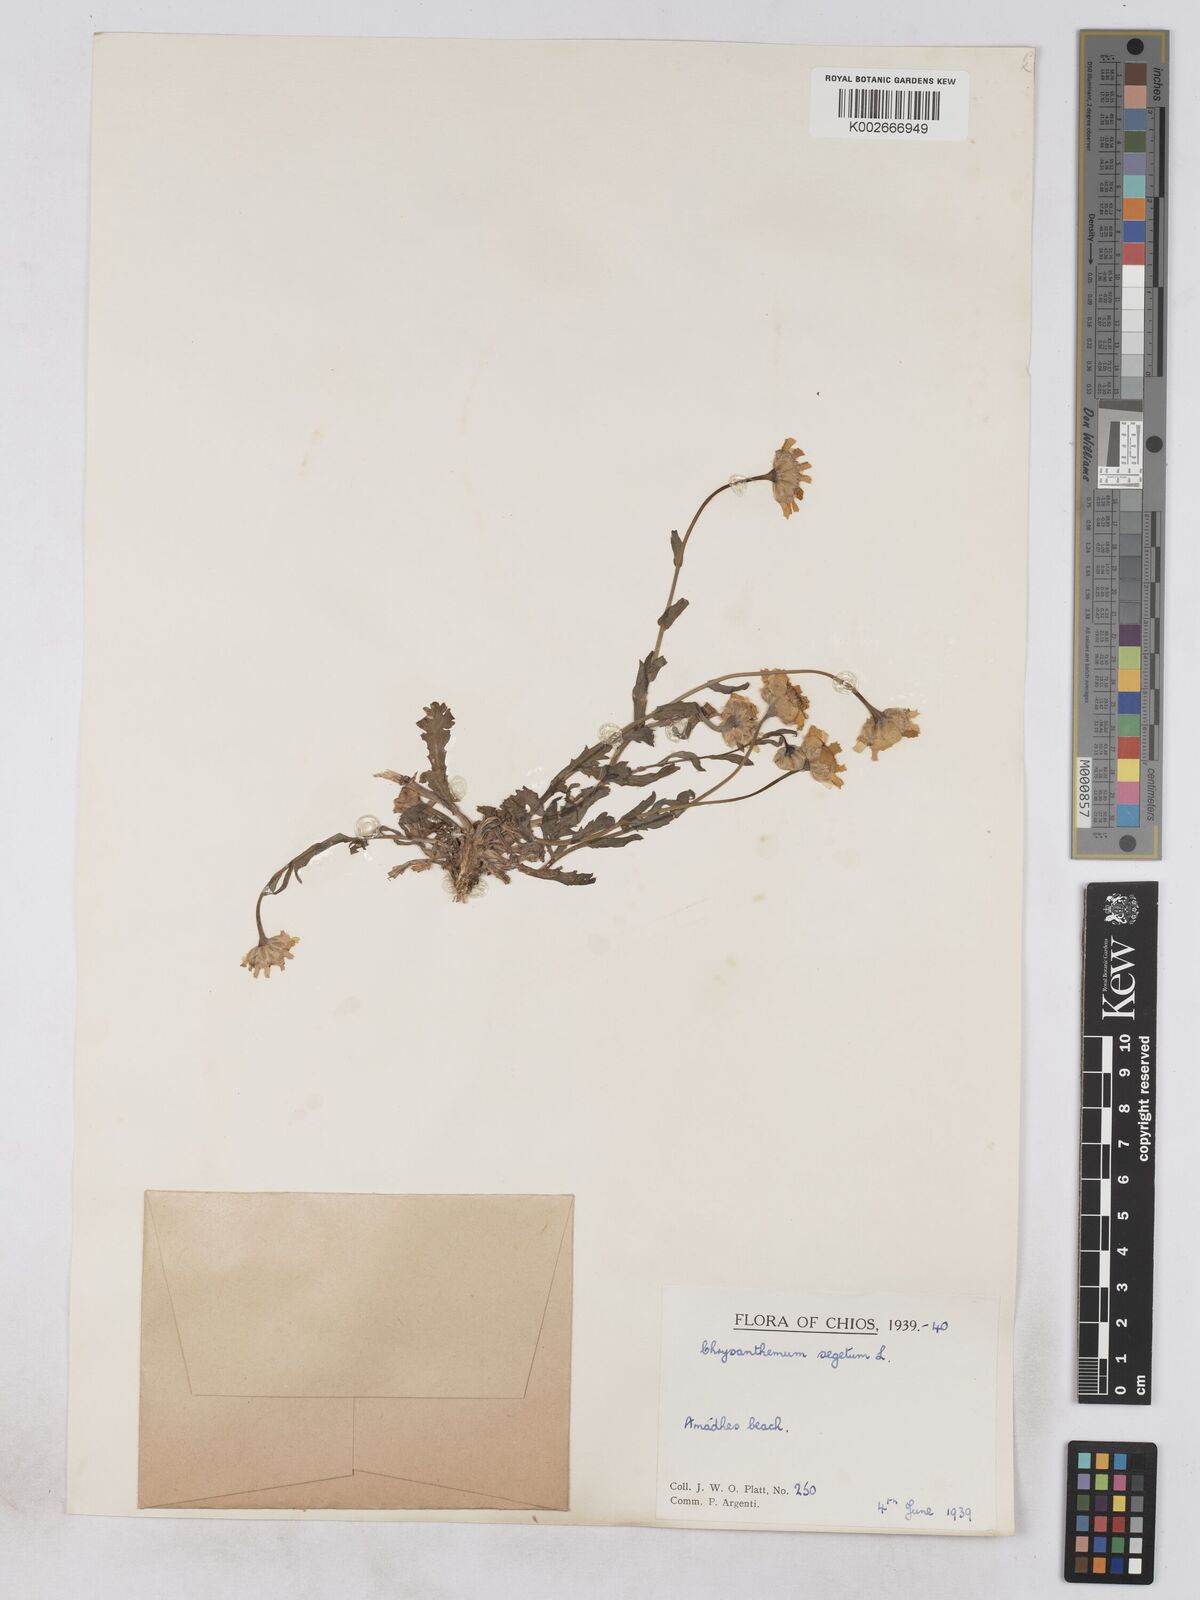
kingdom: Plantae
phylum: Tracheophyta
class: Magnoliopsida
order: Asterales
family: Asteraceae
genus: Glebionis
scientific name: Glebionis segetum
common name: Corndaisy
